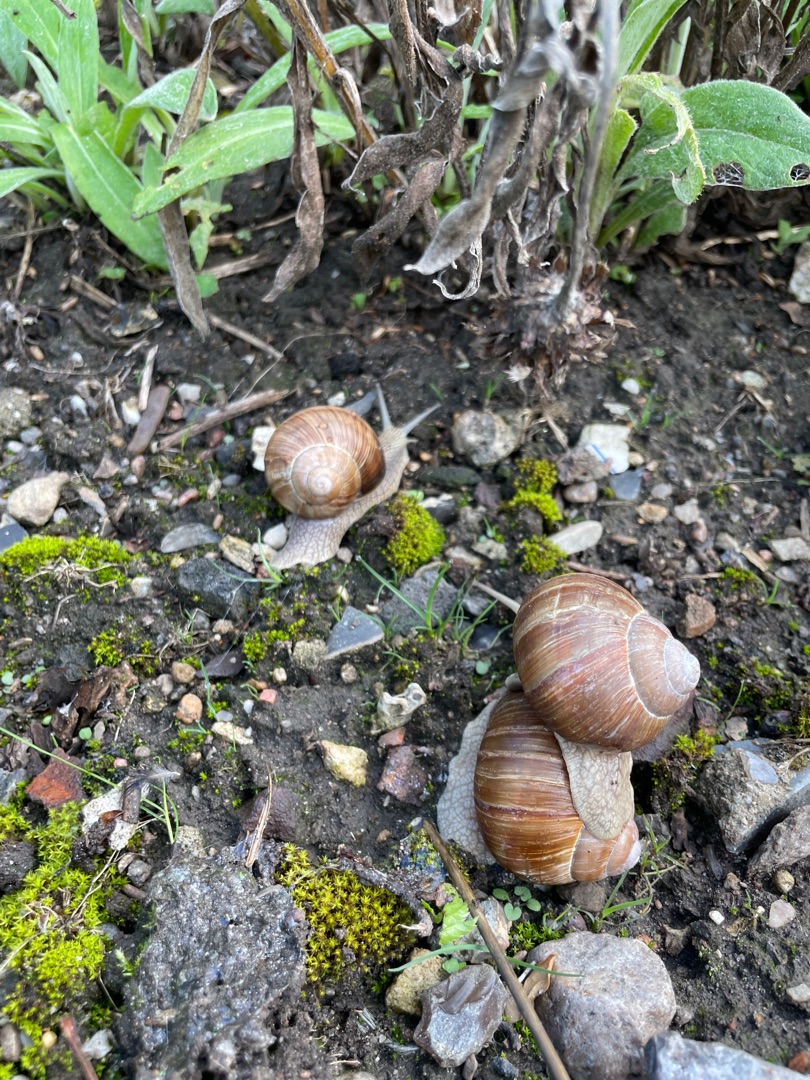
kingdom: Animalia
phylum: Mollusca
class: Gastropoda
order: Stylommatophora
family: Helicidae
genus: Helix
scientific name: Helix pomatia
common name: Vinbjergsnegl
